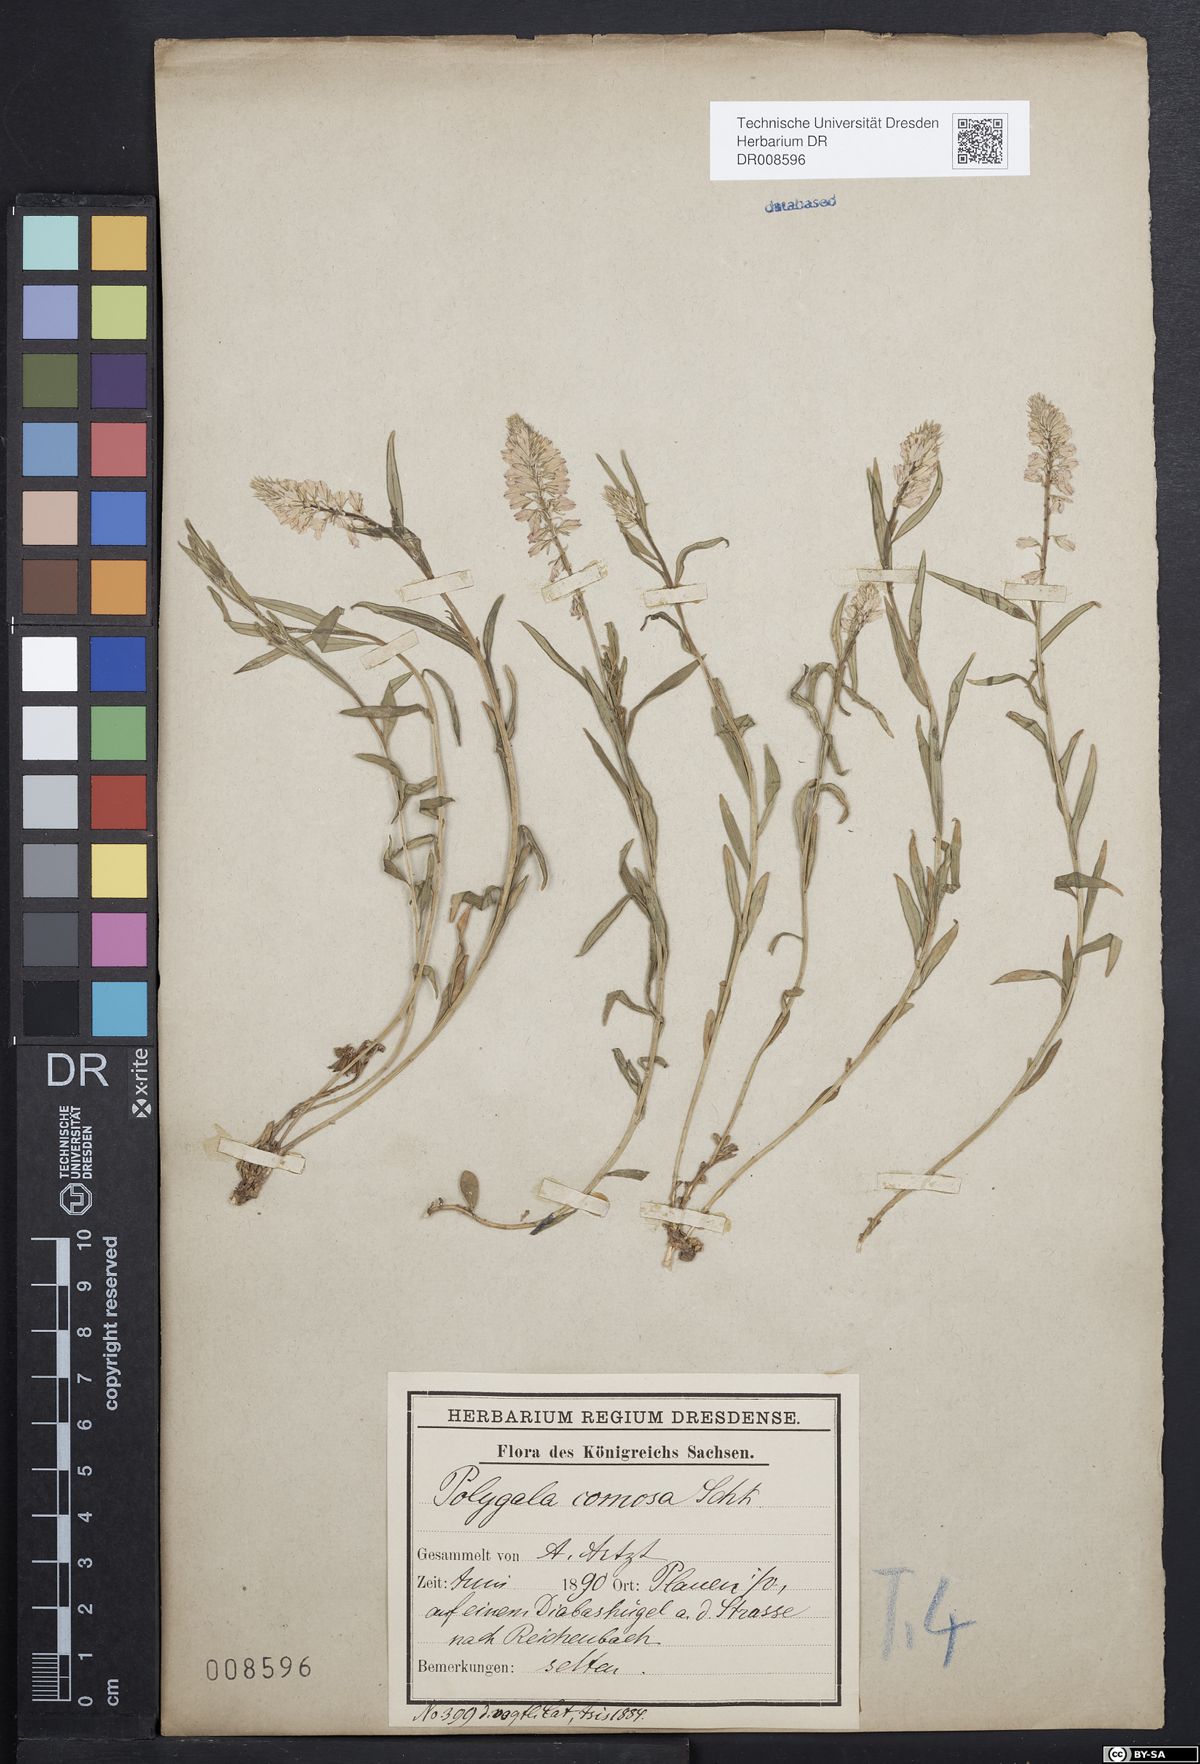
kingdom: Plantae
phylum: Tracheophyta
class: Magnoliopsida
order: Fabales
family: Polygalaceae
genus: Polygala
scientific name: Polygala comosa
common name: Tufted milkwort
